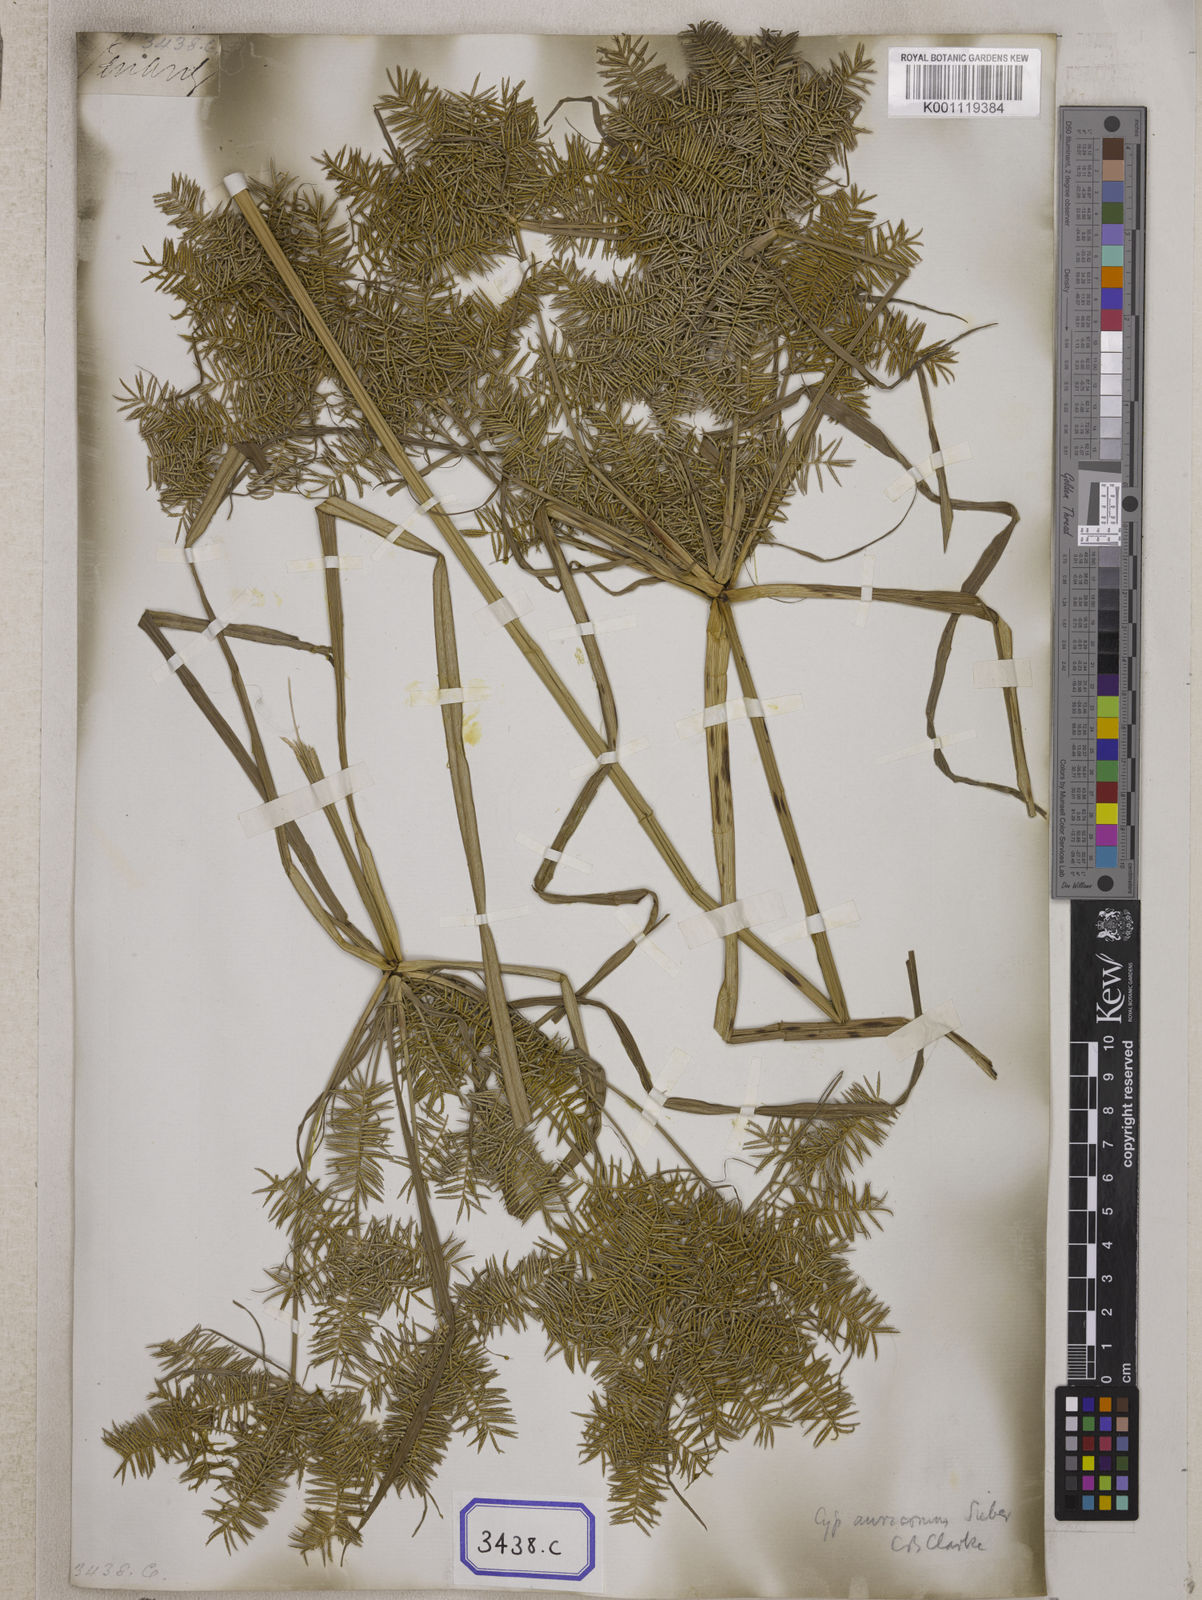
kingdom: Plantae
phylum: Tracheophyta
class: Liliopsida
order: Poales
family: Cyperaceae
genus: Mariscus
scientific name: Mariscus
